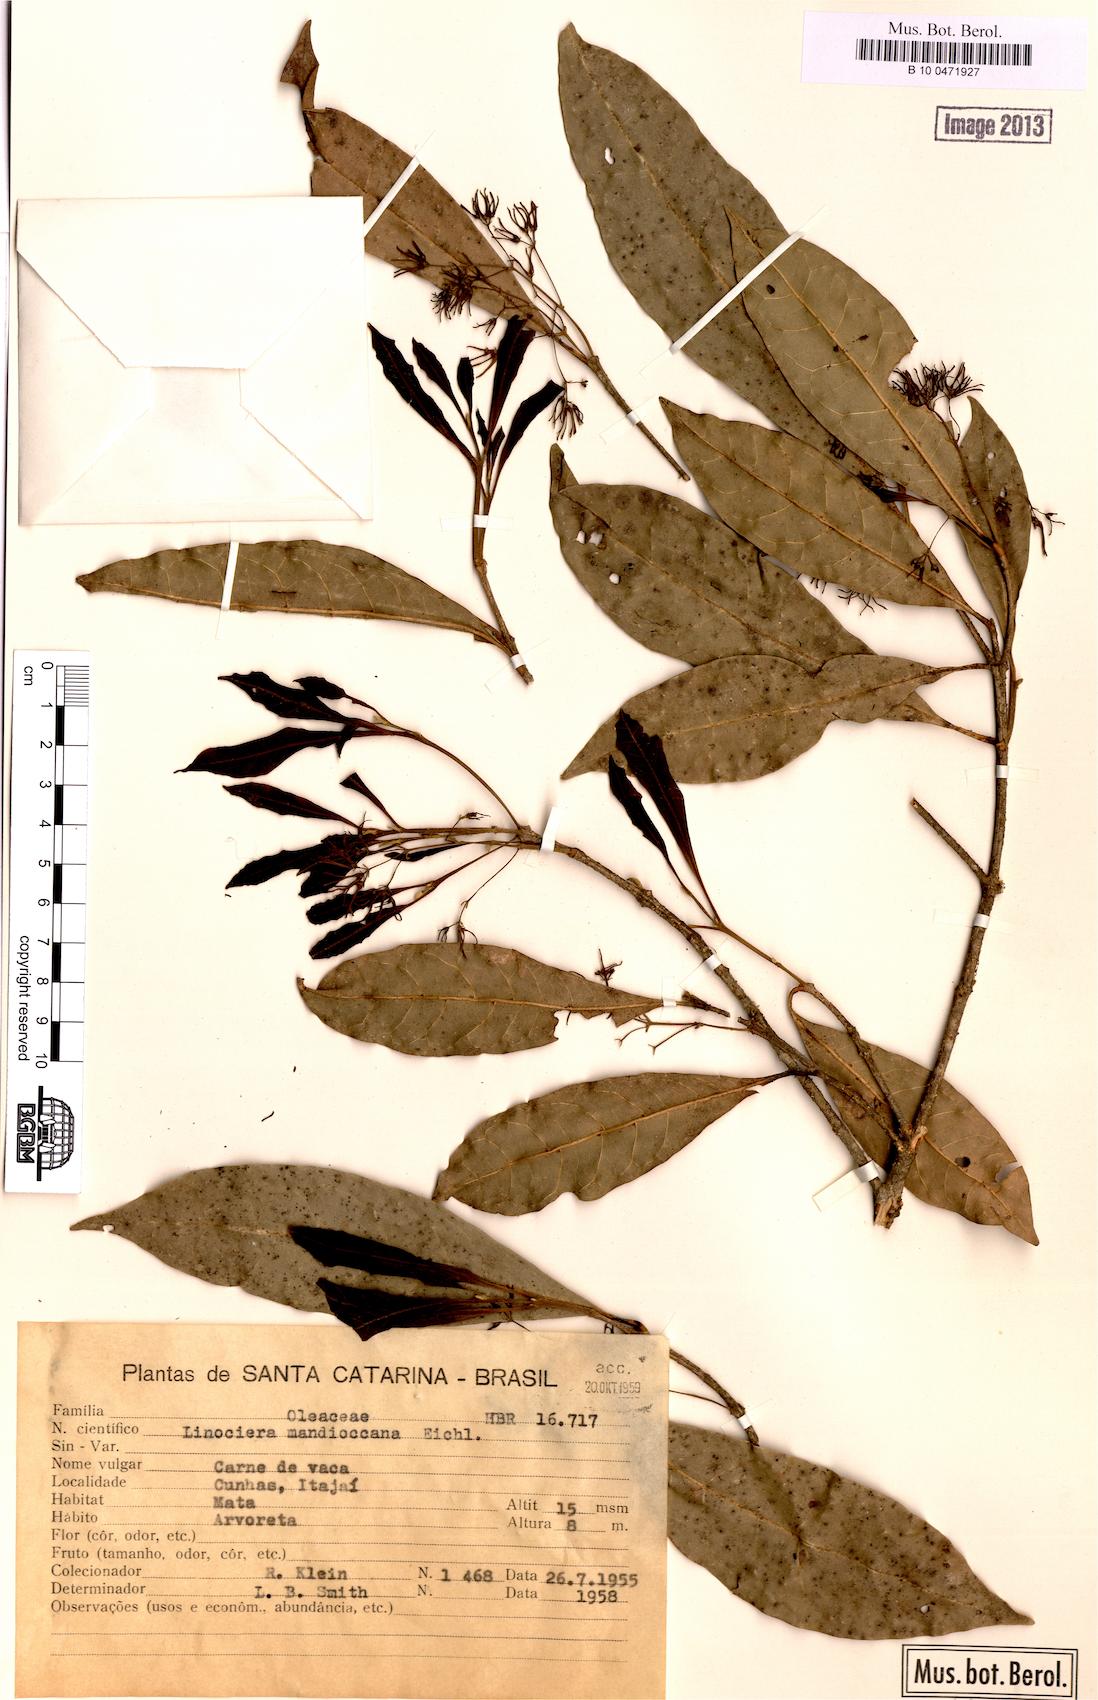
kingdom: Plantae
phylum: Tracheophyta
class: Magnoliopsida
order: Lamiales
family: Oleaceae
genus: Chionanthus
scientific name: Chionanthus filiformis
